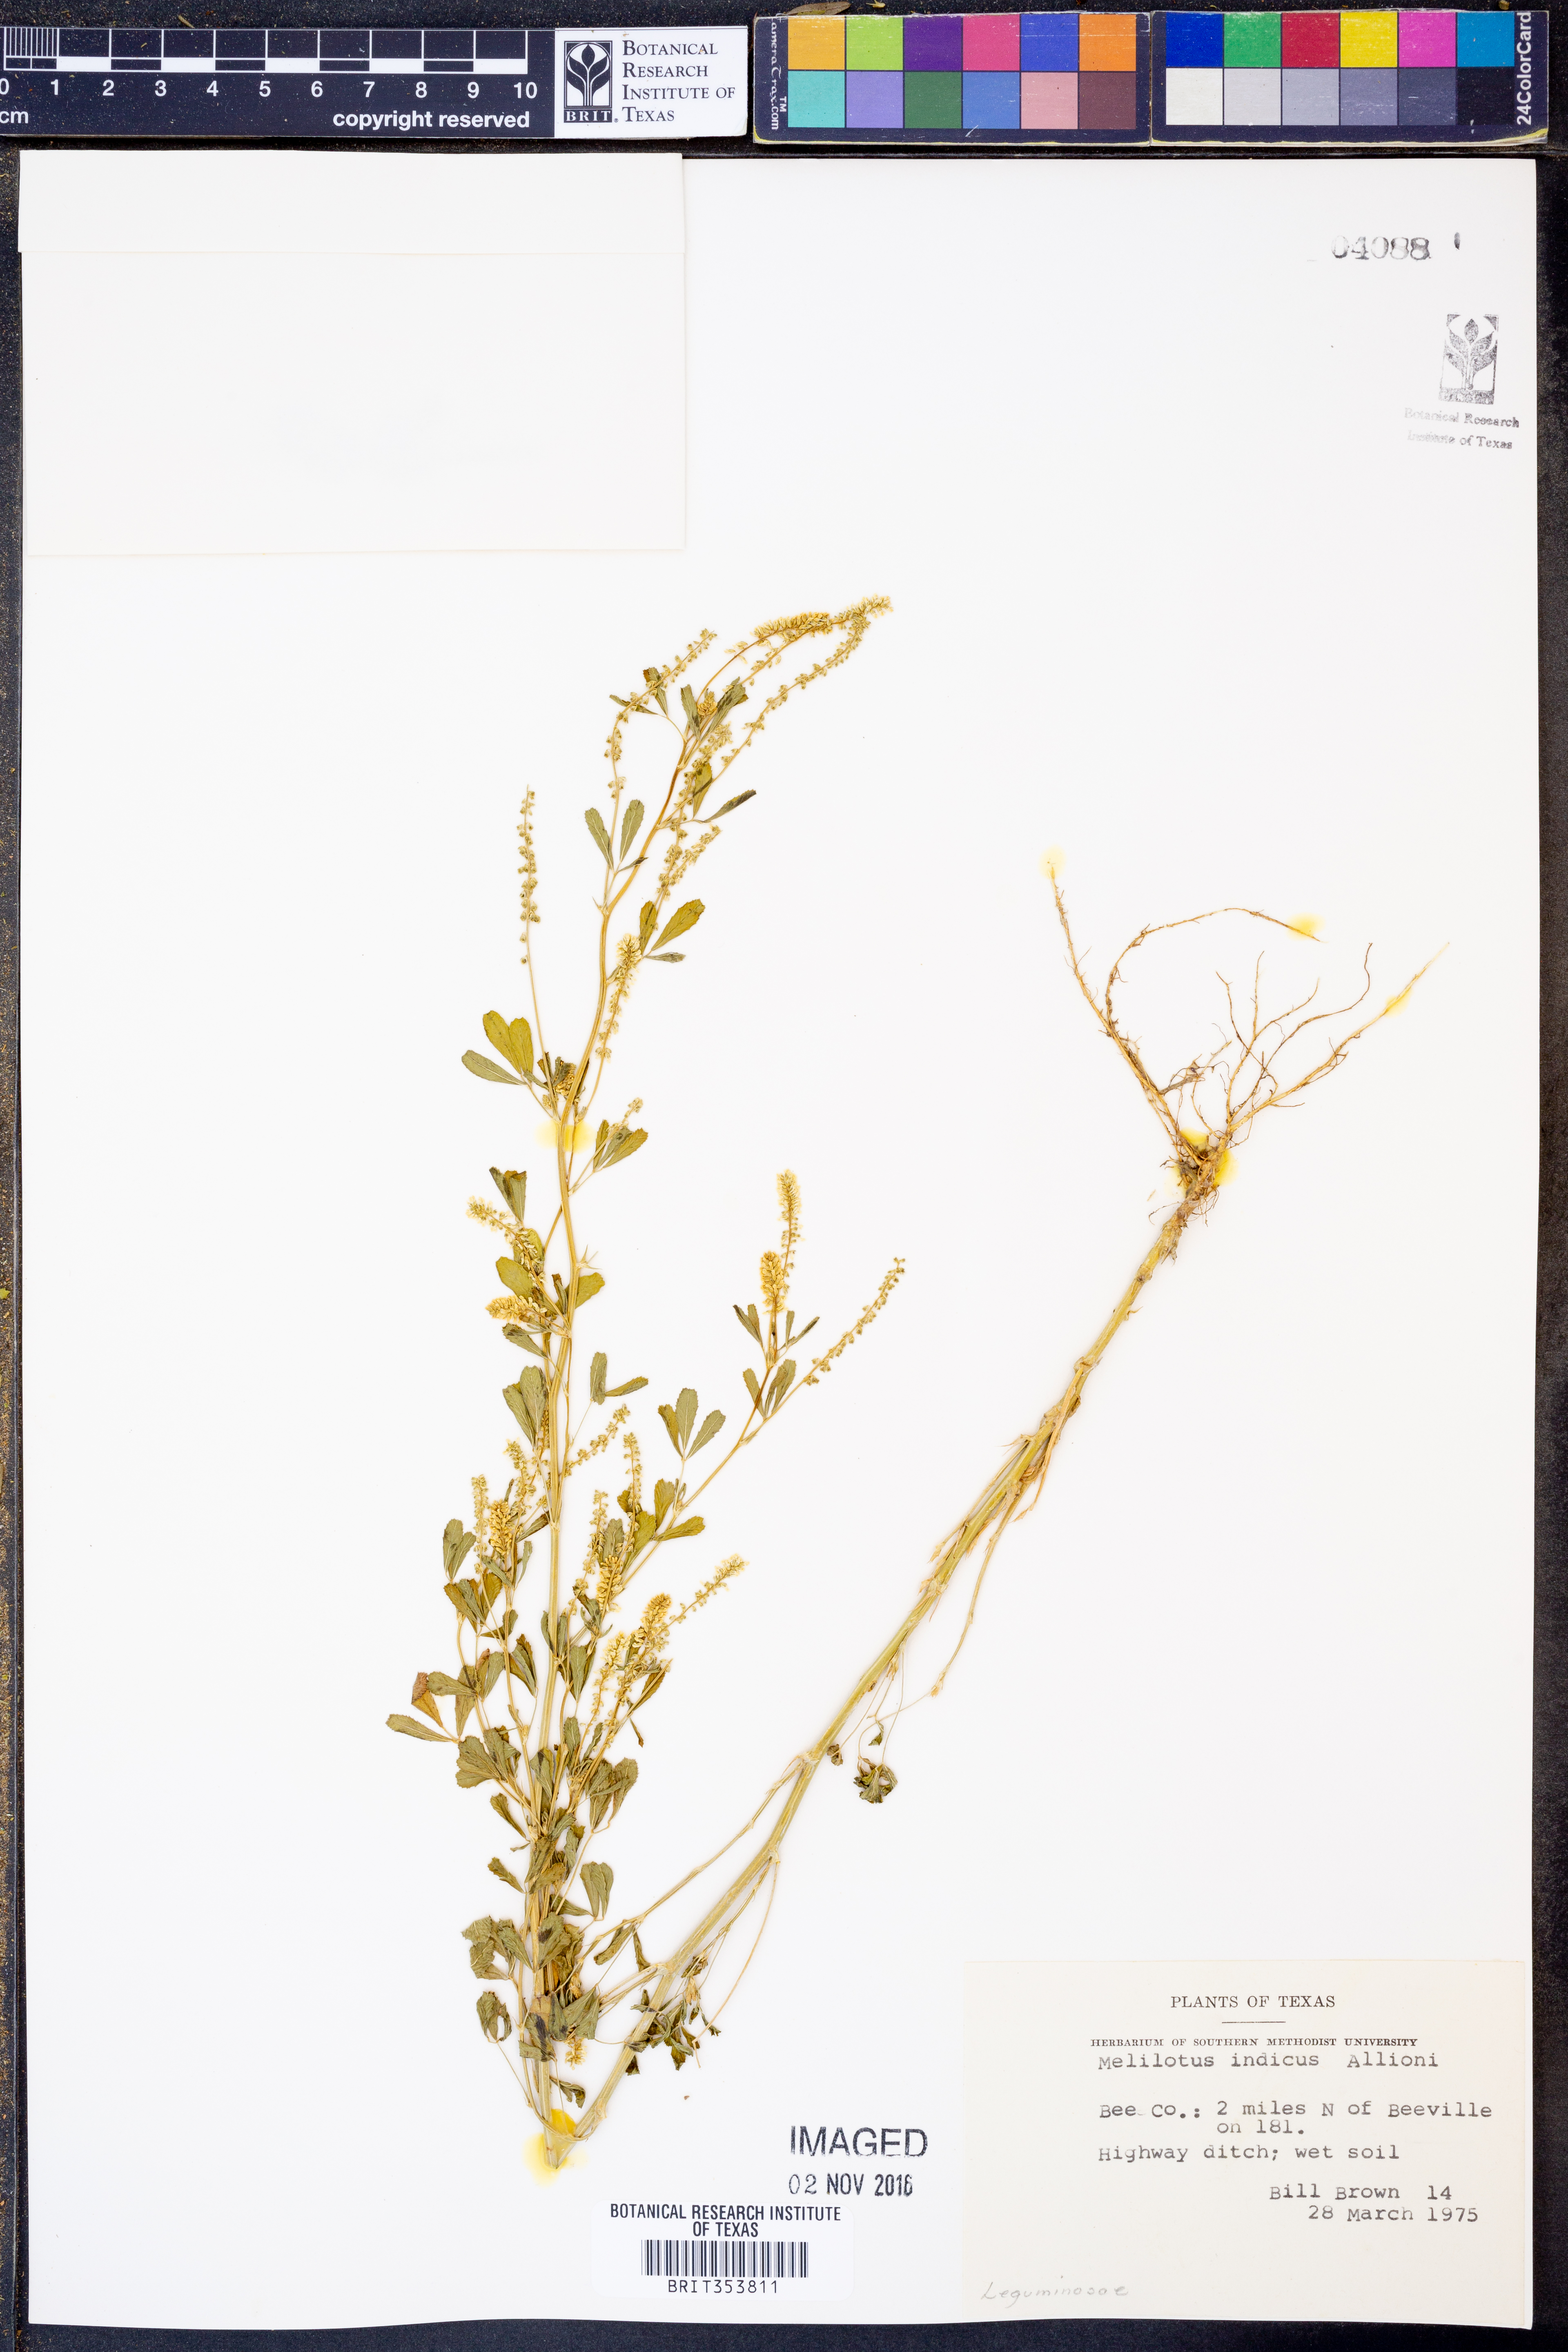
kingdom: Plantae
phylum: Tracheophyta
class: Magnoliopsida
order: Fabales
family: Fabaceae
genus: Melilotus
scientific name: Melilotus indicus
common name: Small melilot
